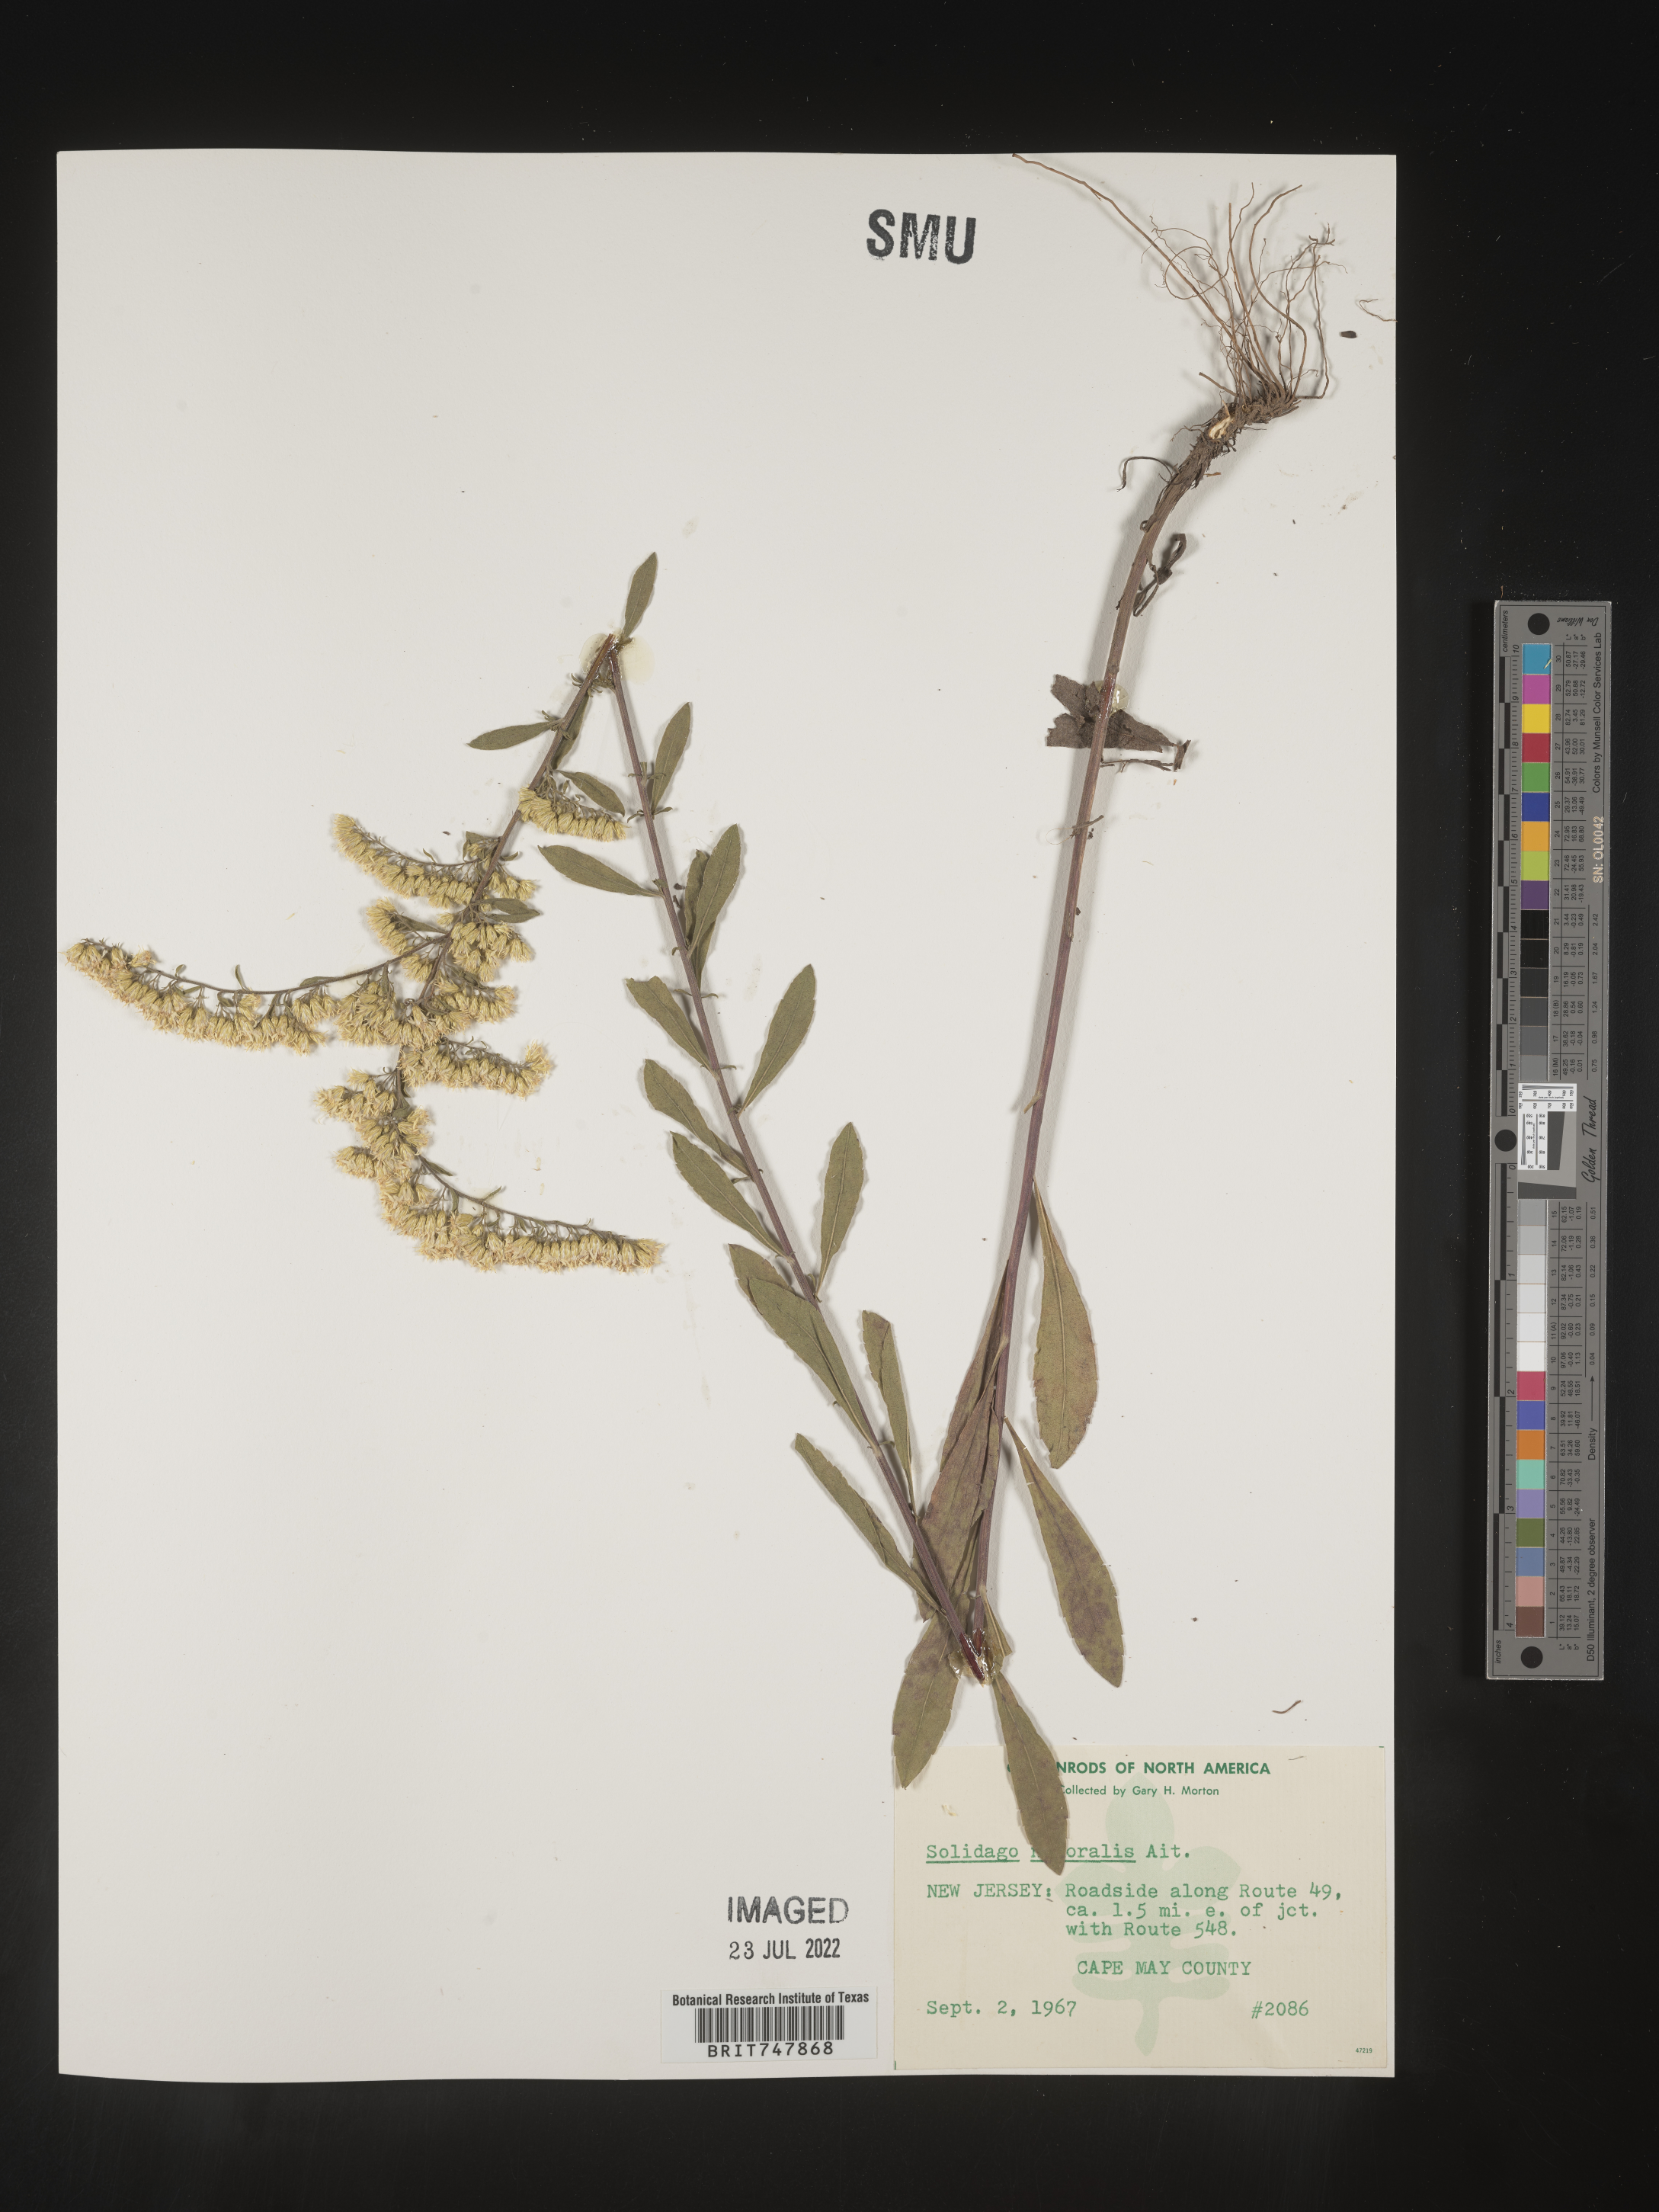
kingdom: Plantae
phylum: Tracheophyta
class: Magnoliopsida
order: Asterales
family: Asteraceae
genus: Solidago
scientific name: Solidago nemoralis
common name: Grey goldenrod
